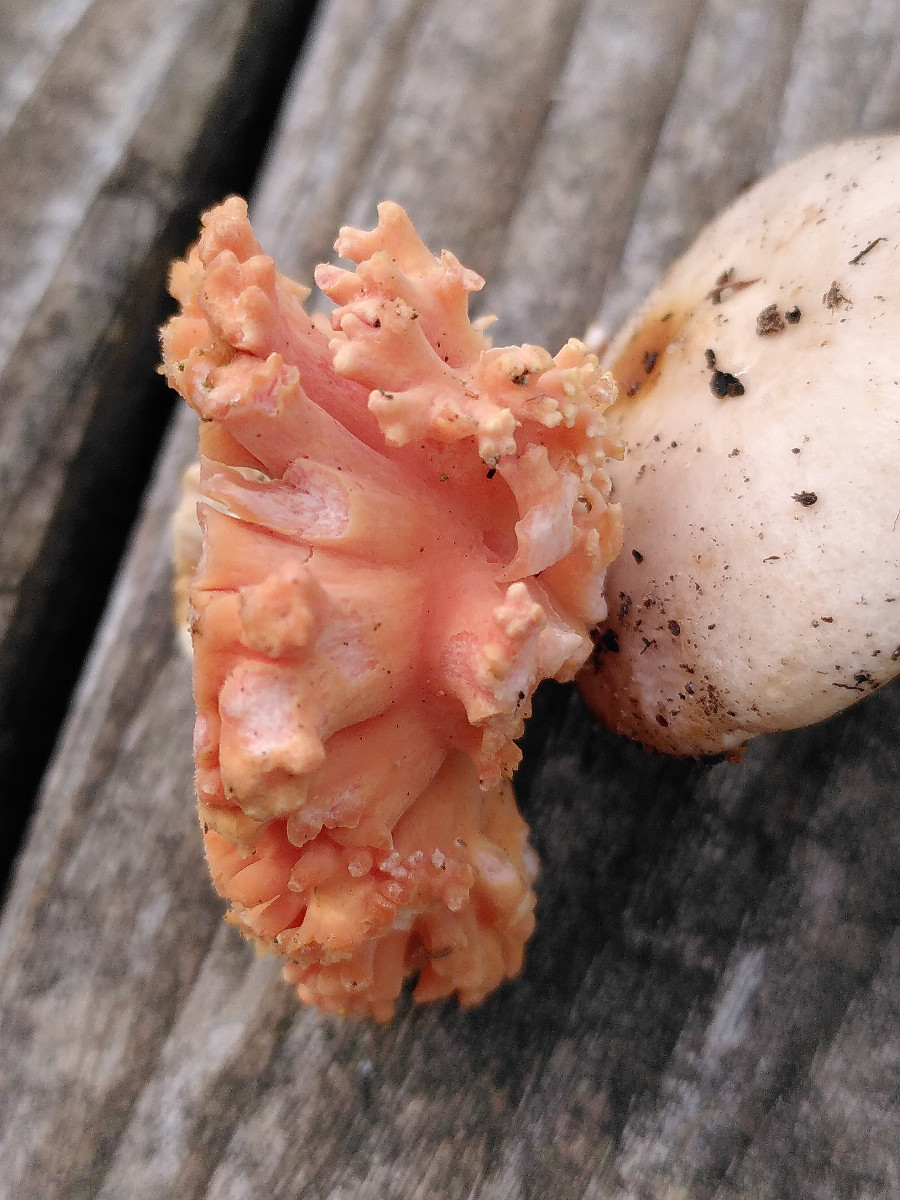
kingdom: Fungi
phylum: Basidiomycota
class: Agaricomycetes
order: Gomphales
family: Gomphaceae
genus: Ramaria
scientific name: Ramaria
